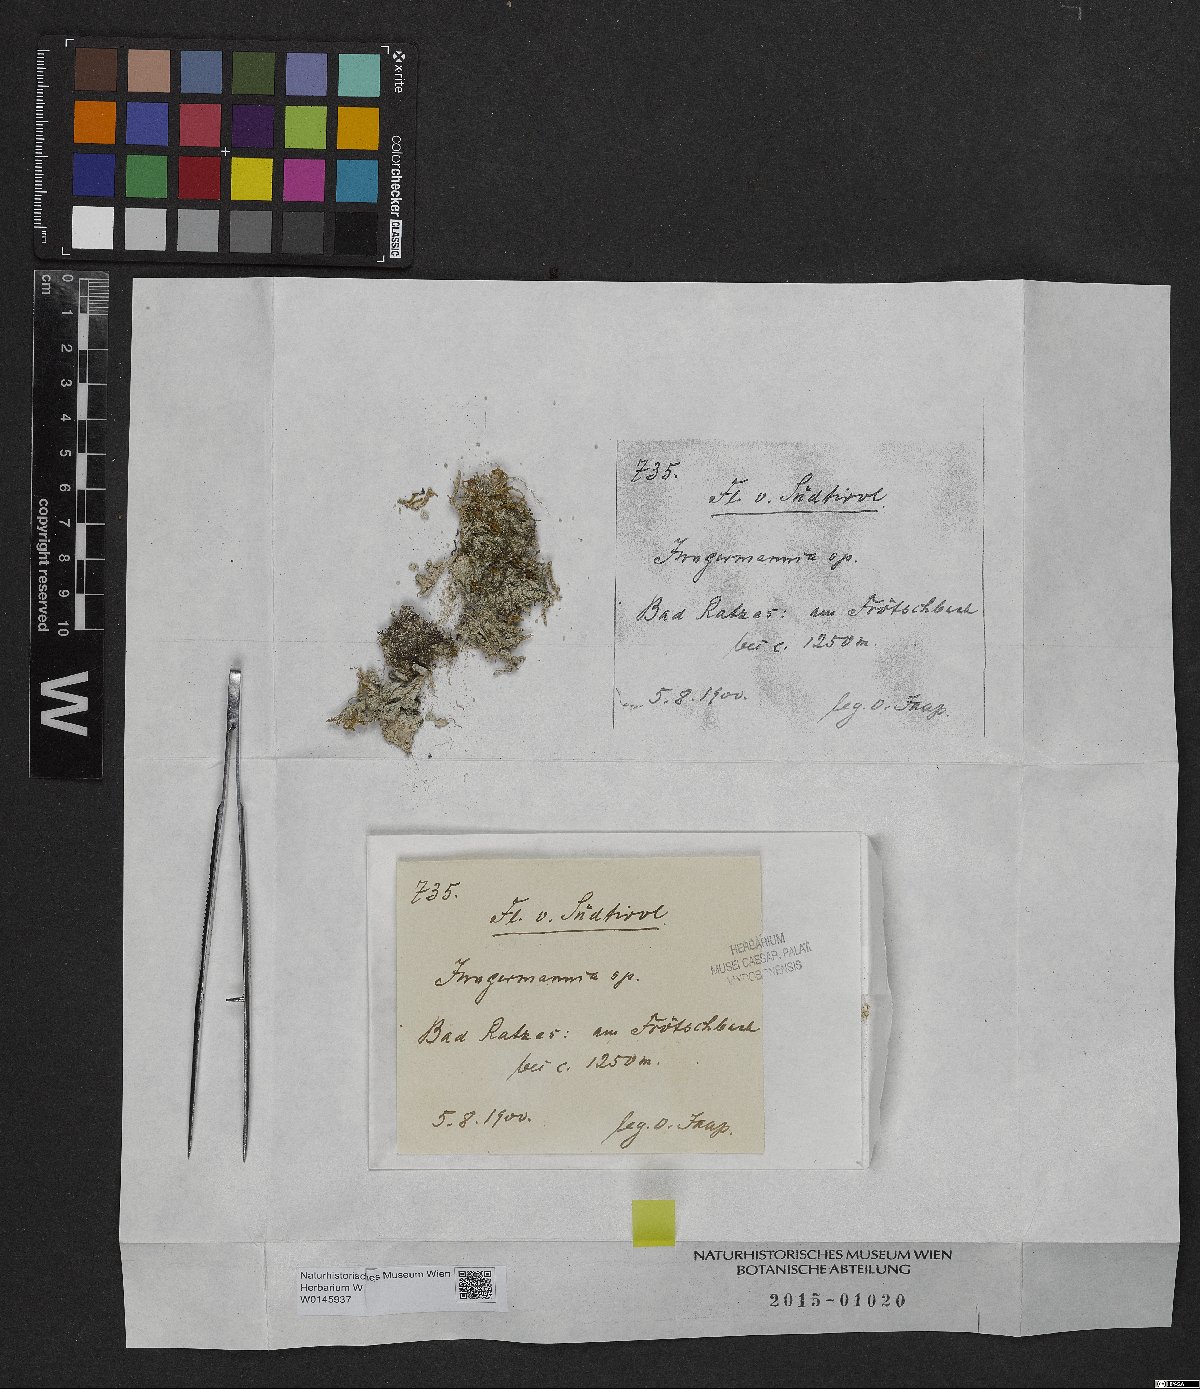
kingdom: Plantae
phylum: Marchantiophyta
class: Jungermanniopsida
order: Jungermanniales
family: Jungermanniaceae
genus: Jungermannia
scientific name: Jungermannia
